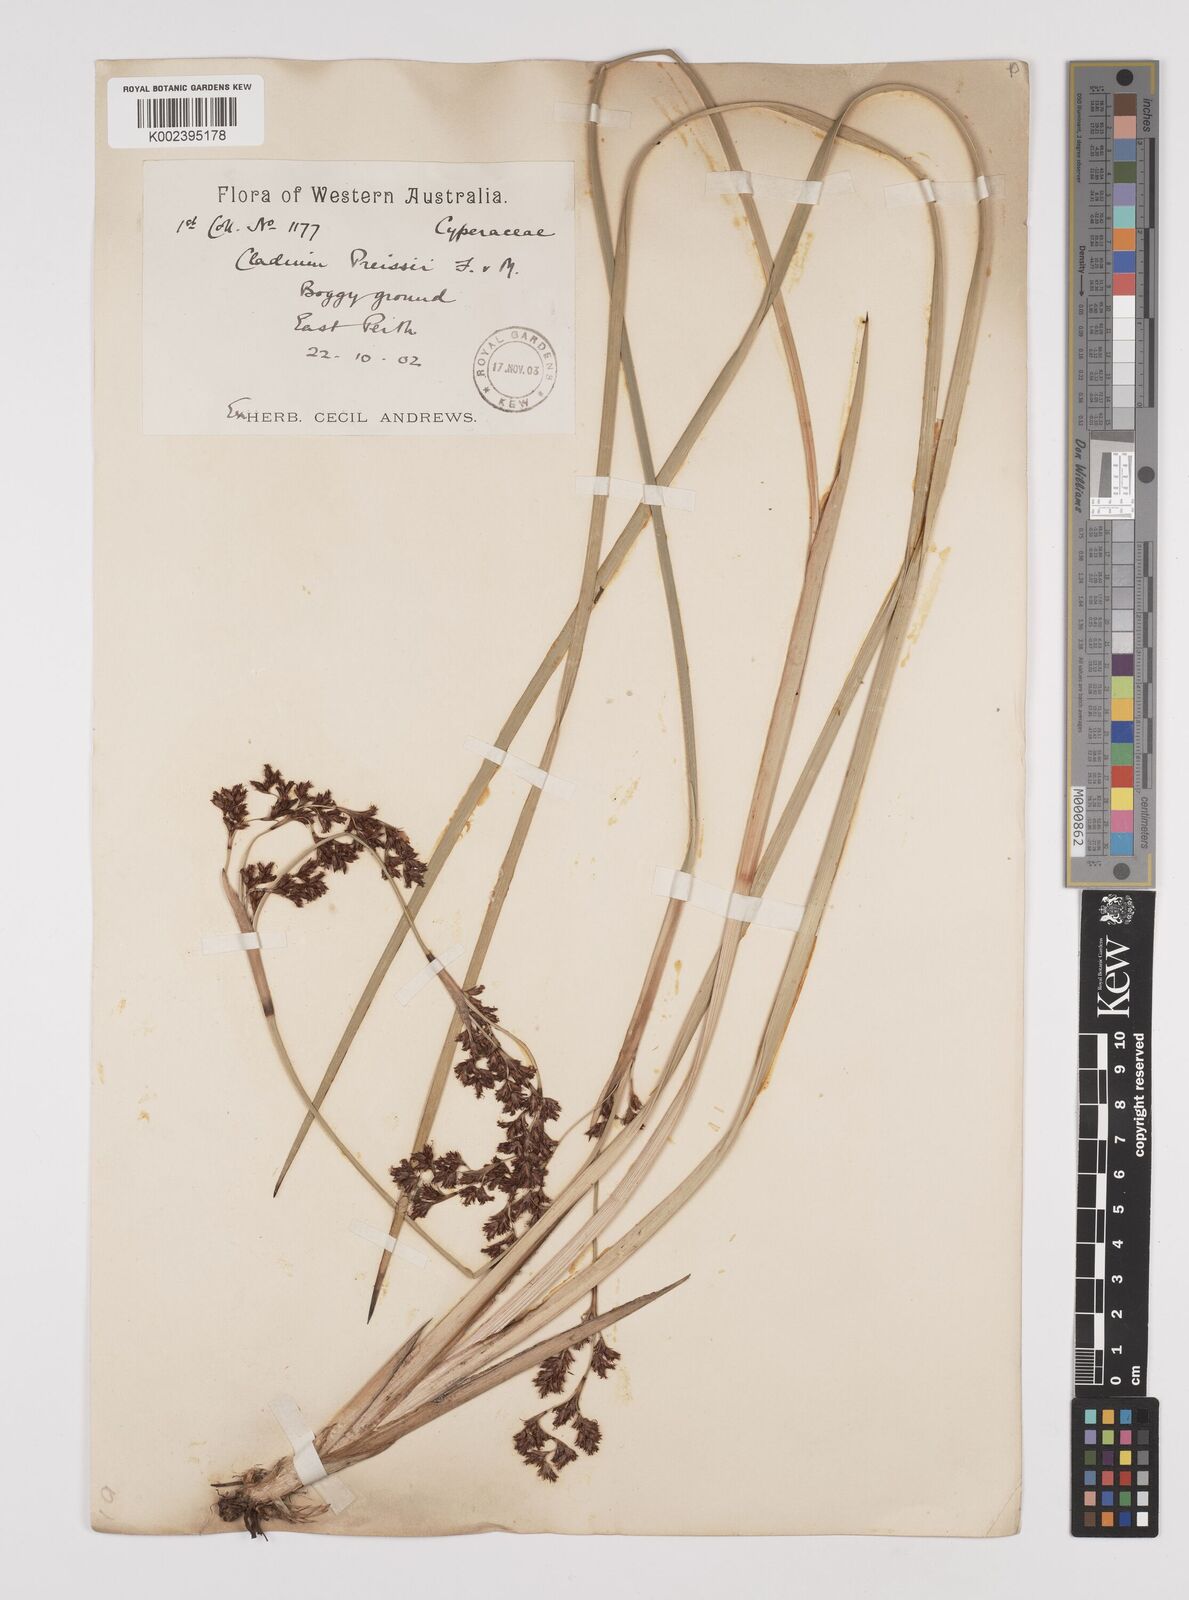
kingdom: Plantae
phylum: Tracheophyta
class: Liliopsida
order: Poales
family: Cyperaceae
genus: Machaerina
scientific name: Machaerina preissii
